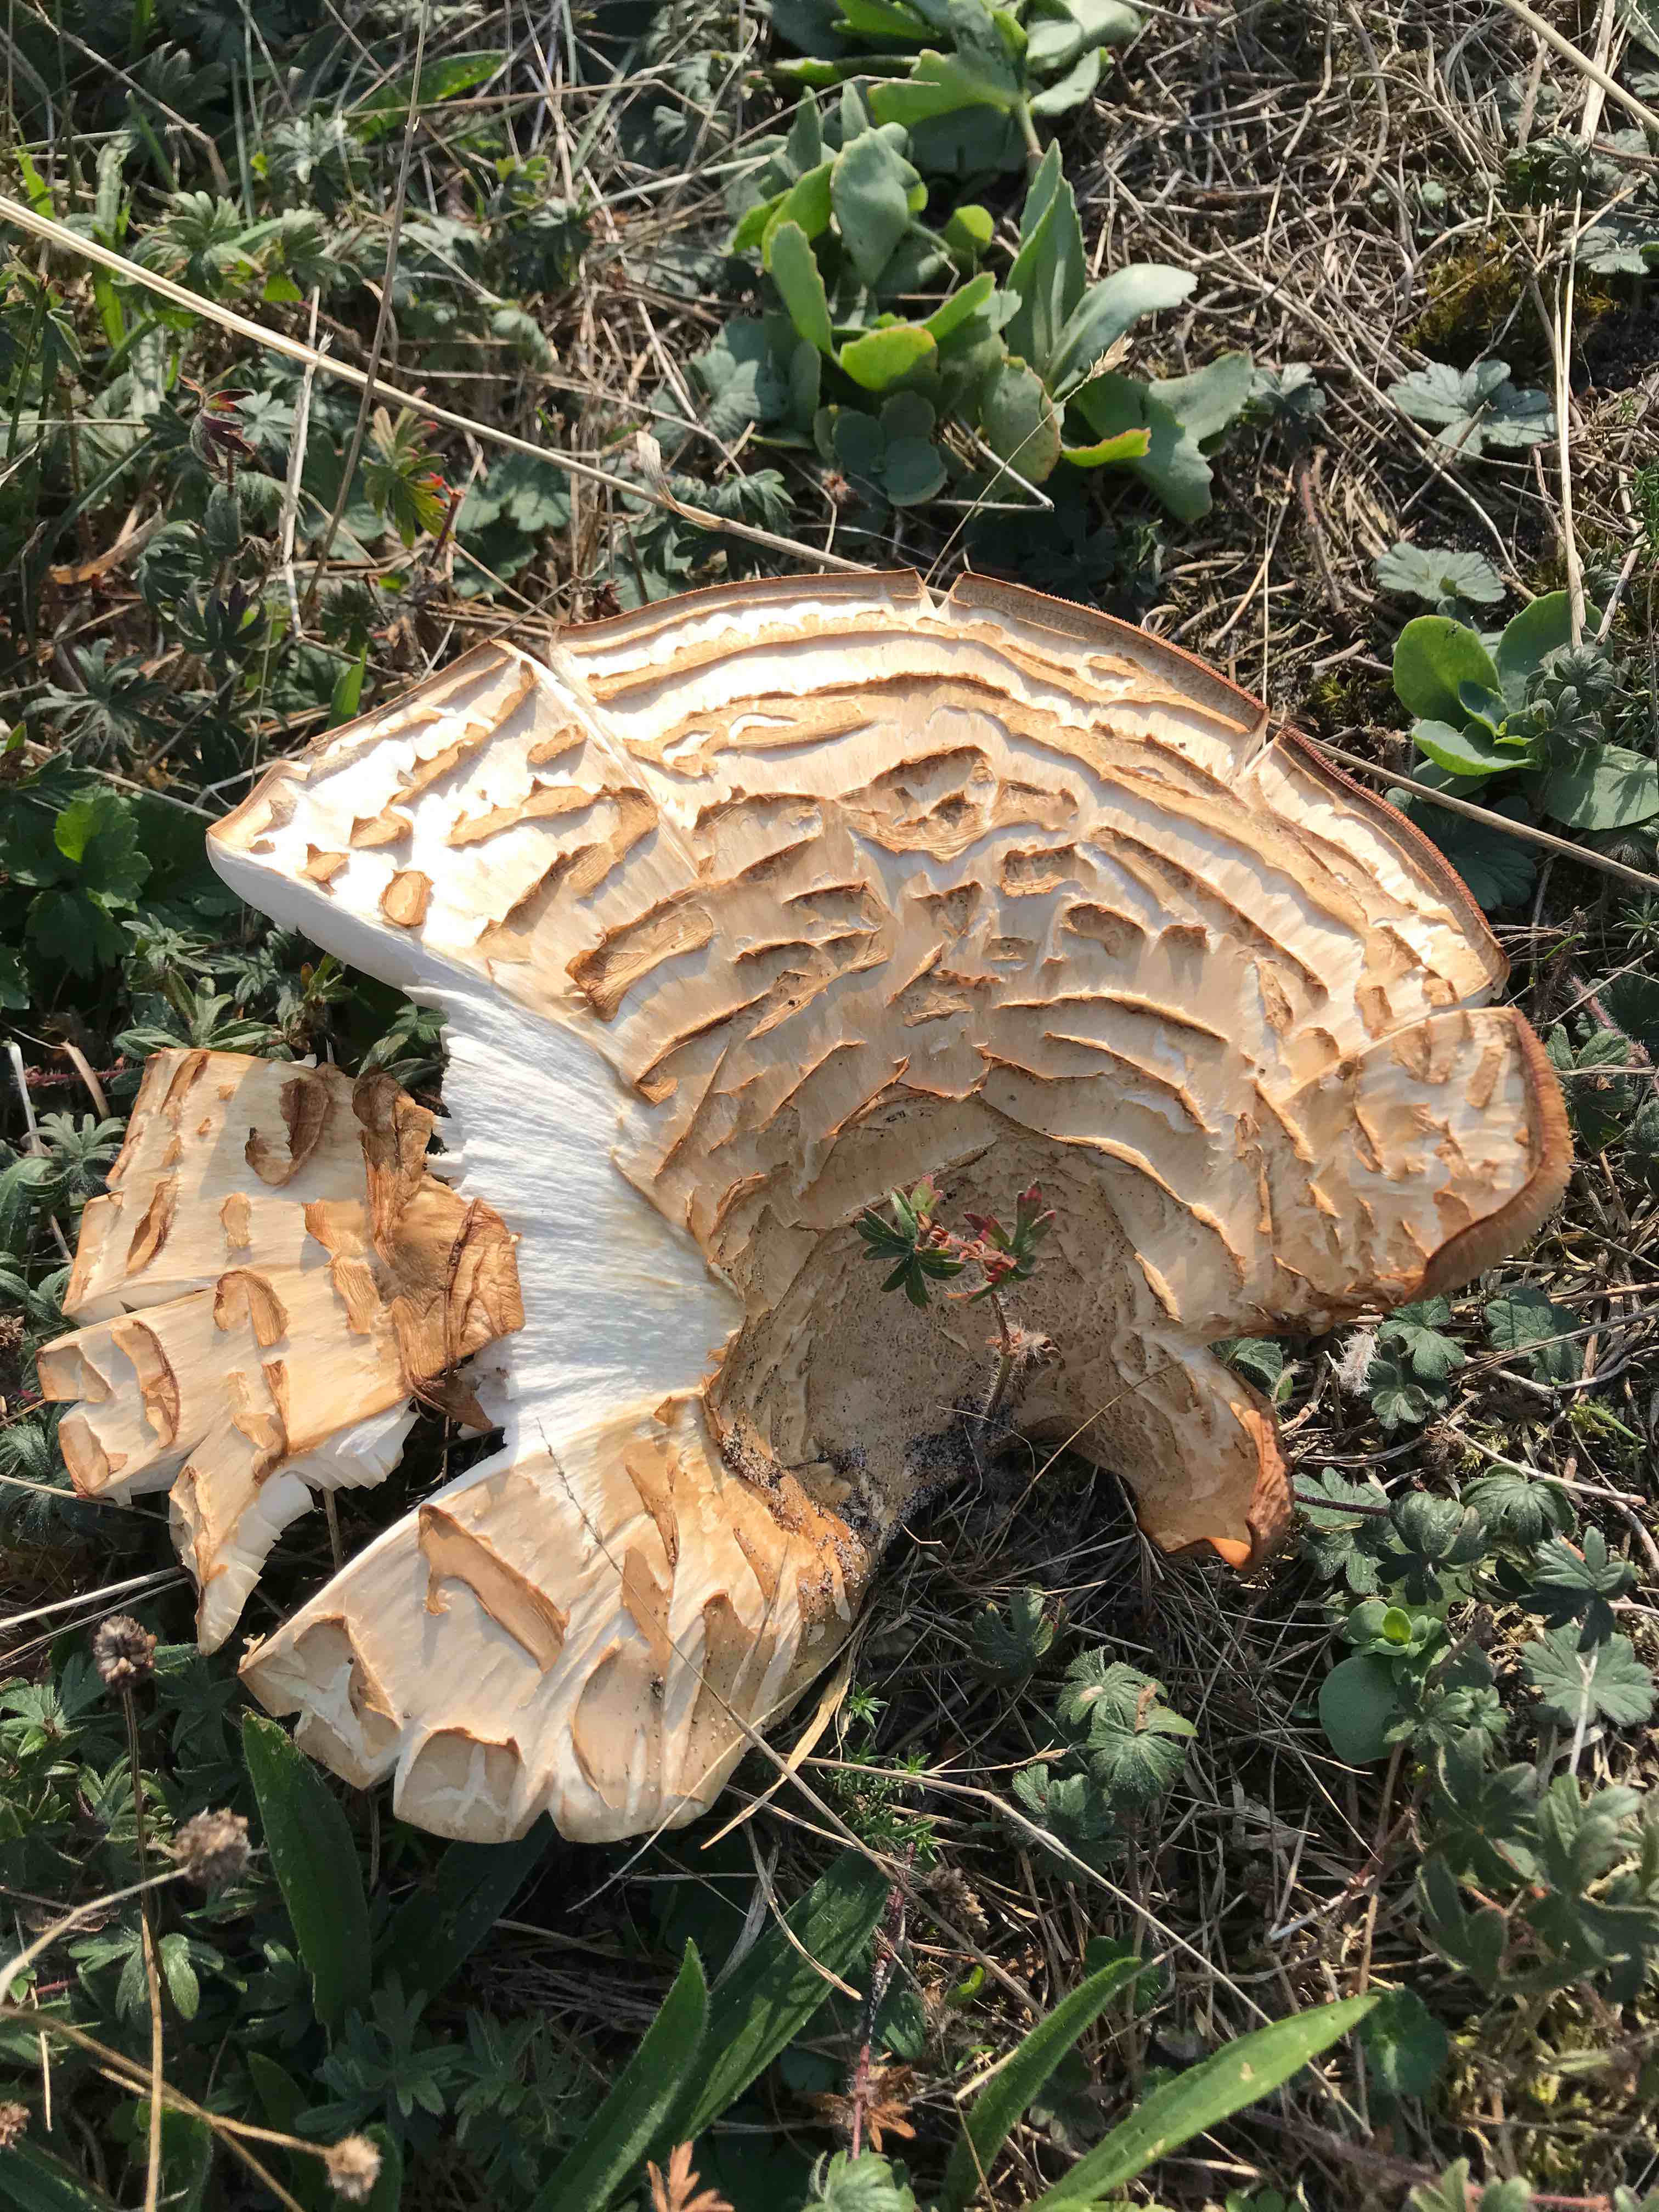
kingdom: Fungi
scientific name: Fungi
